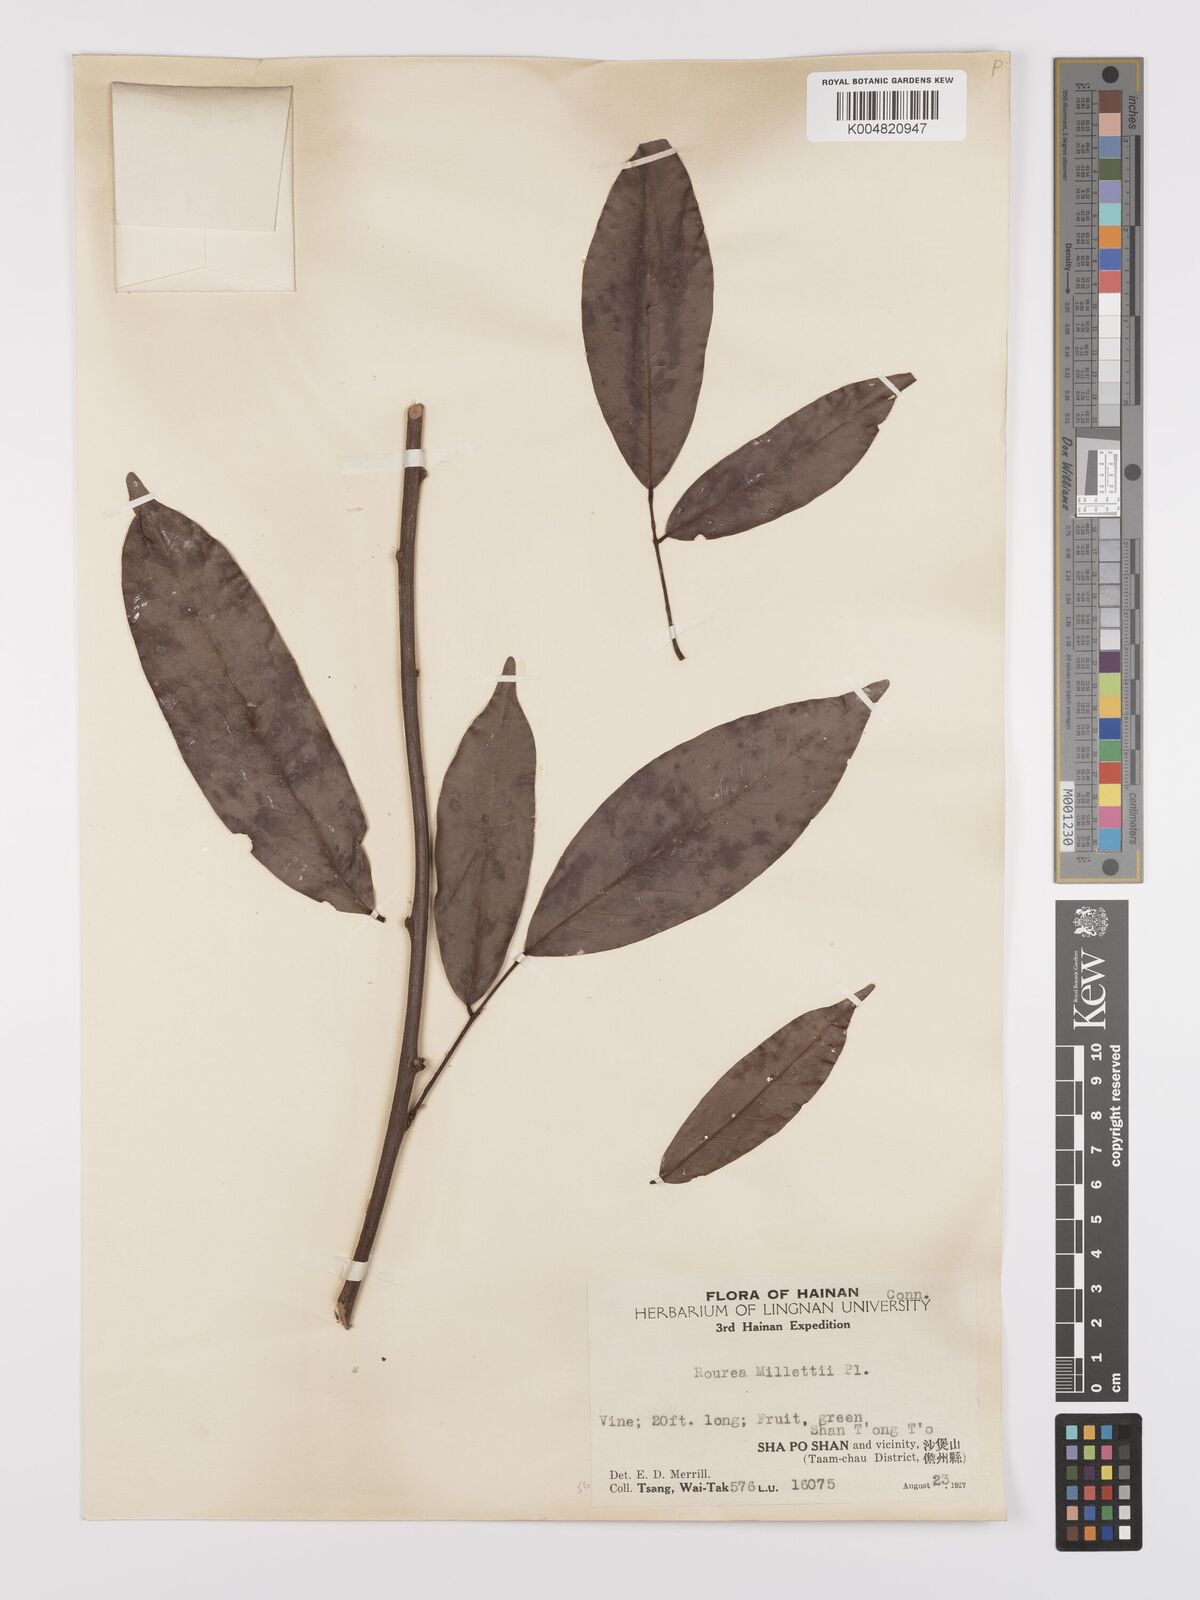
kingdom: Plantae
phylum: Tracheophyta
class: Magnoliopsida
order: Oxalidales
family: Connaraceae
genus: Rourea
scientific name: Rourea
